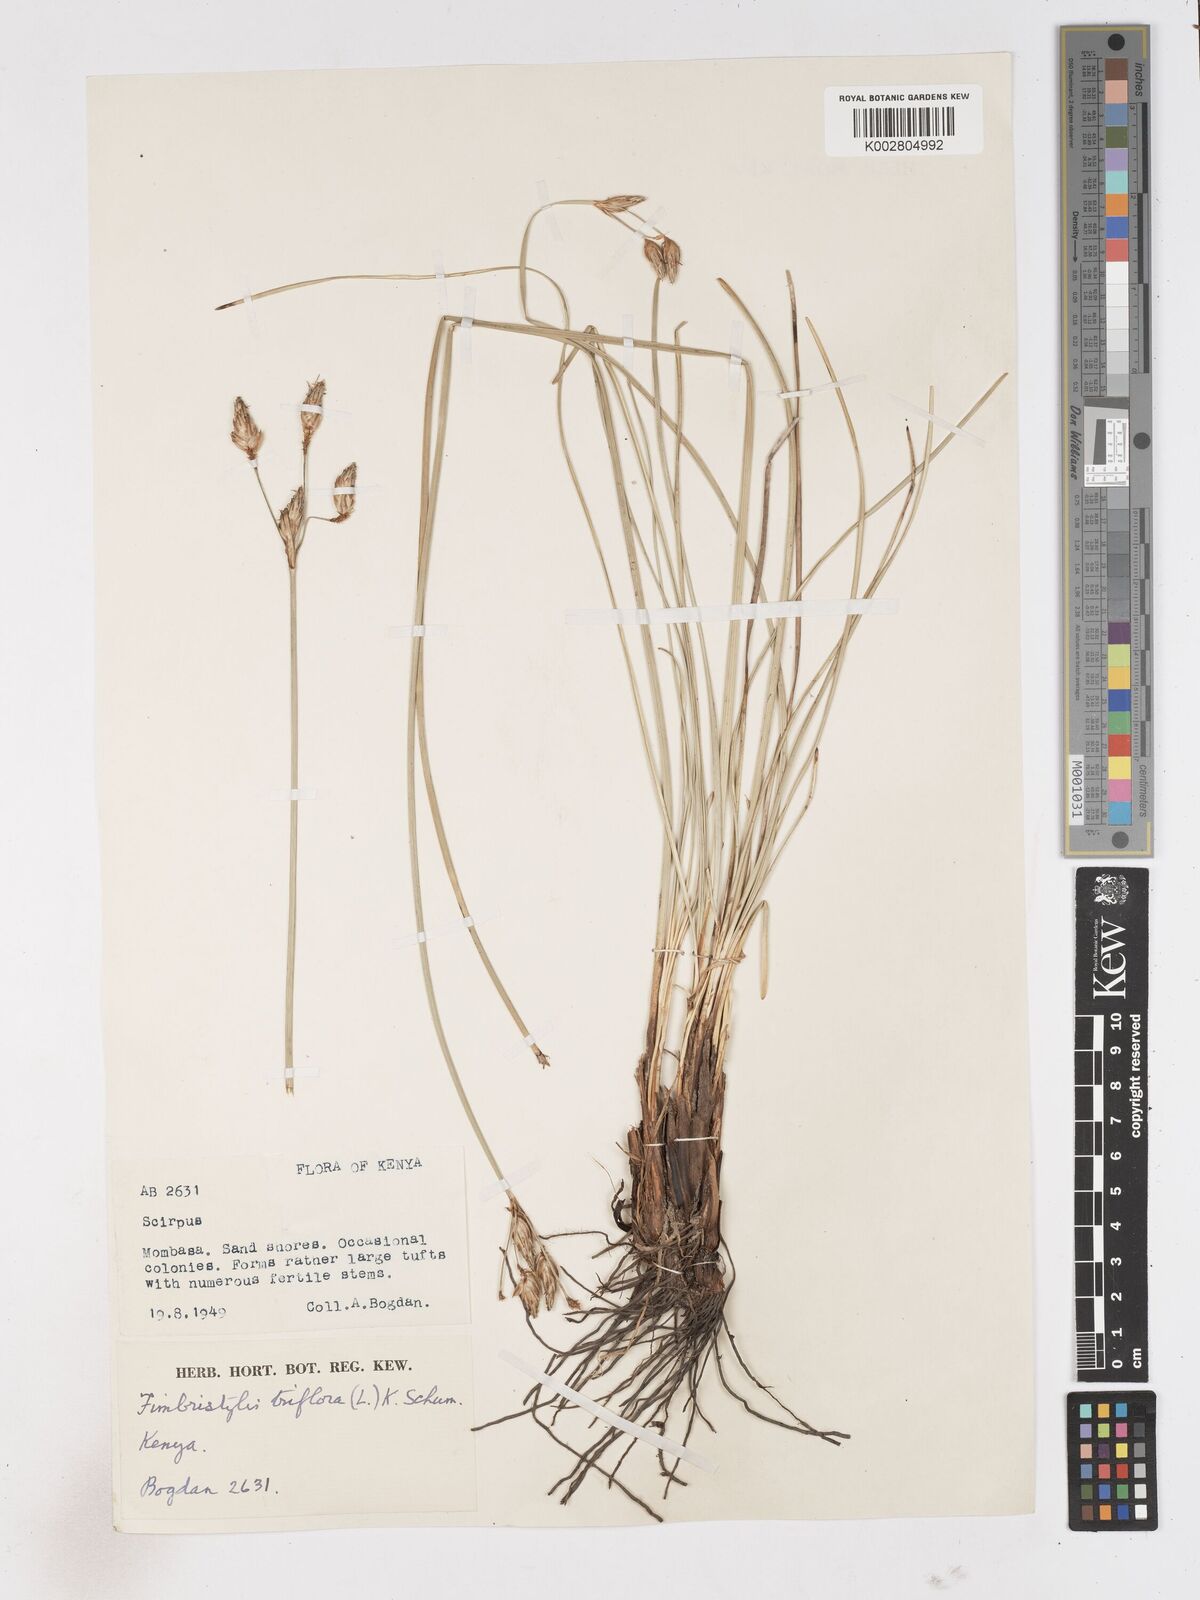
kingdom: Plantae
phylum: Tracheophyta
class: Liliopsida
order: Poales
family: Cyperaceae
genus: Abildgaardia
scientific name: Abildgaardia triflora
